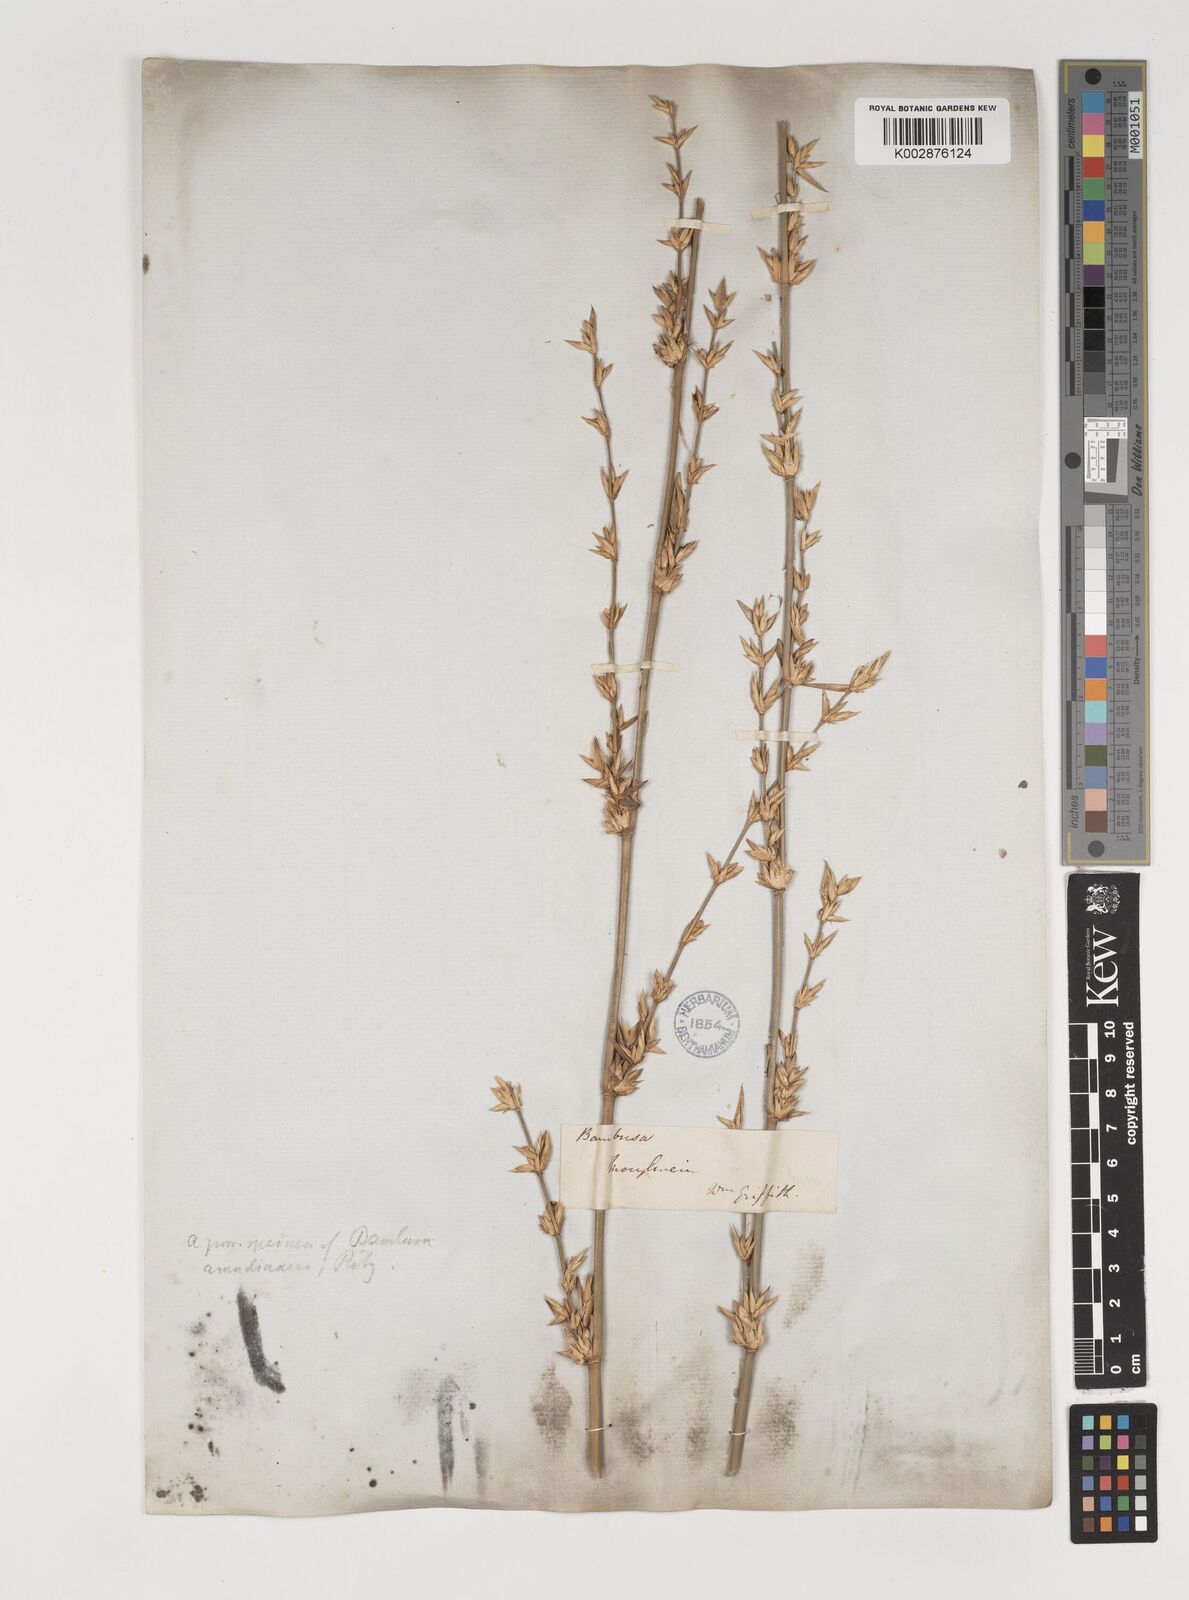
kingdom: Plantae
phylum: Tracheophyta
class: Liliopsida
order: Poales
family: Poaceae
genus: Bambusa
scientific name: Bambusa bambos
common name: Indian thorny bamboo
